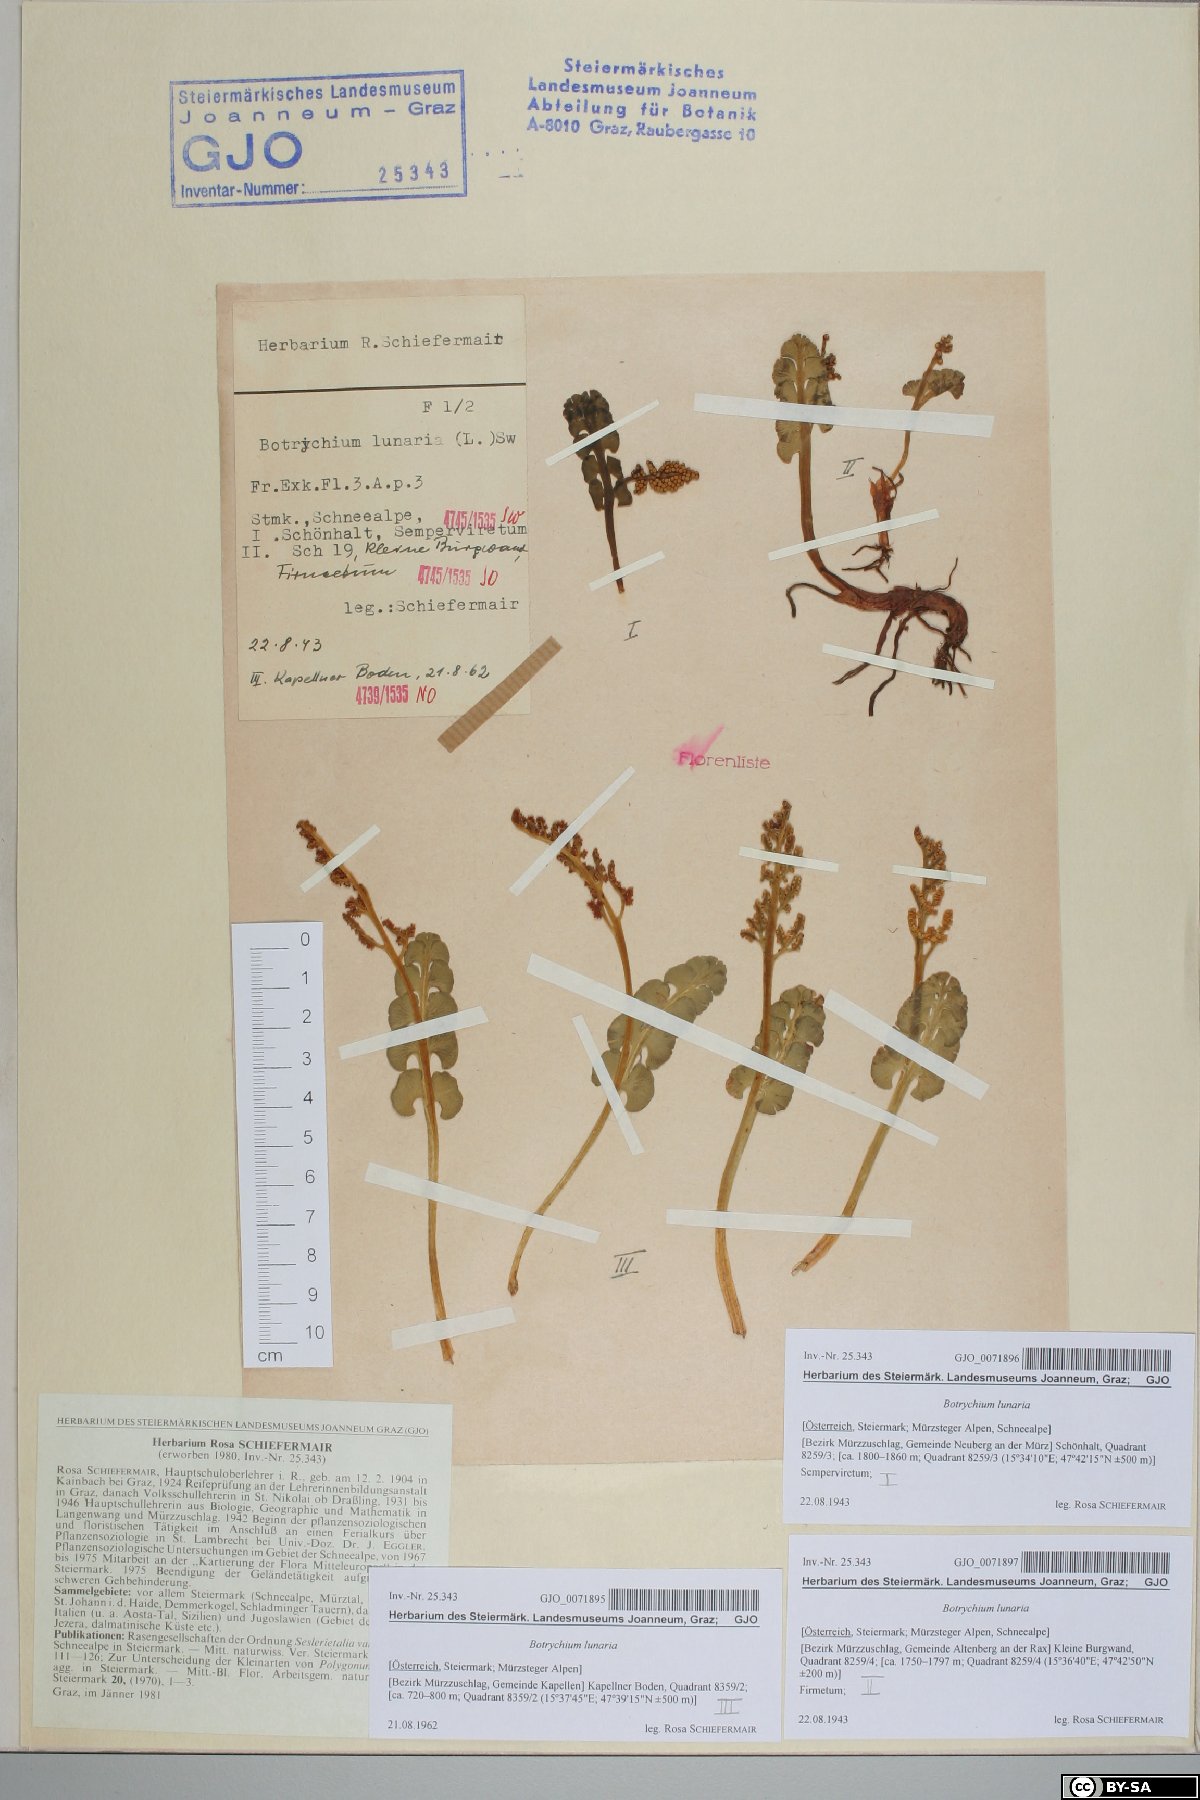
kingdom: Plantae
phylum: Tracheophyta
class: Polypodiopsida
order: Ophioglossales
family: Ophioglossaceae
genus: Botrychium
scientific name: Botrychium lunaria
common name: Moonwort
